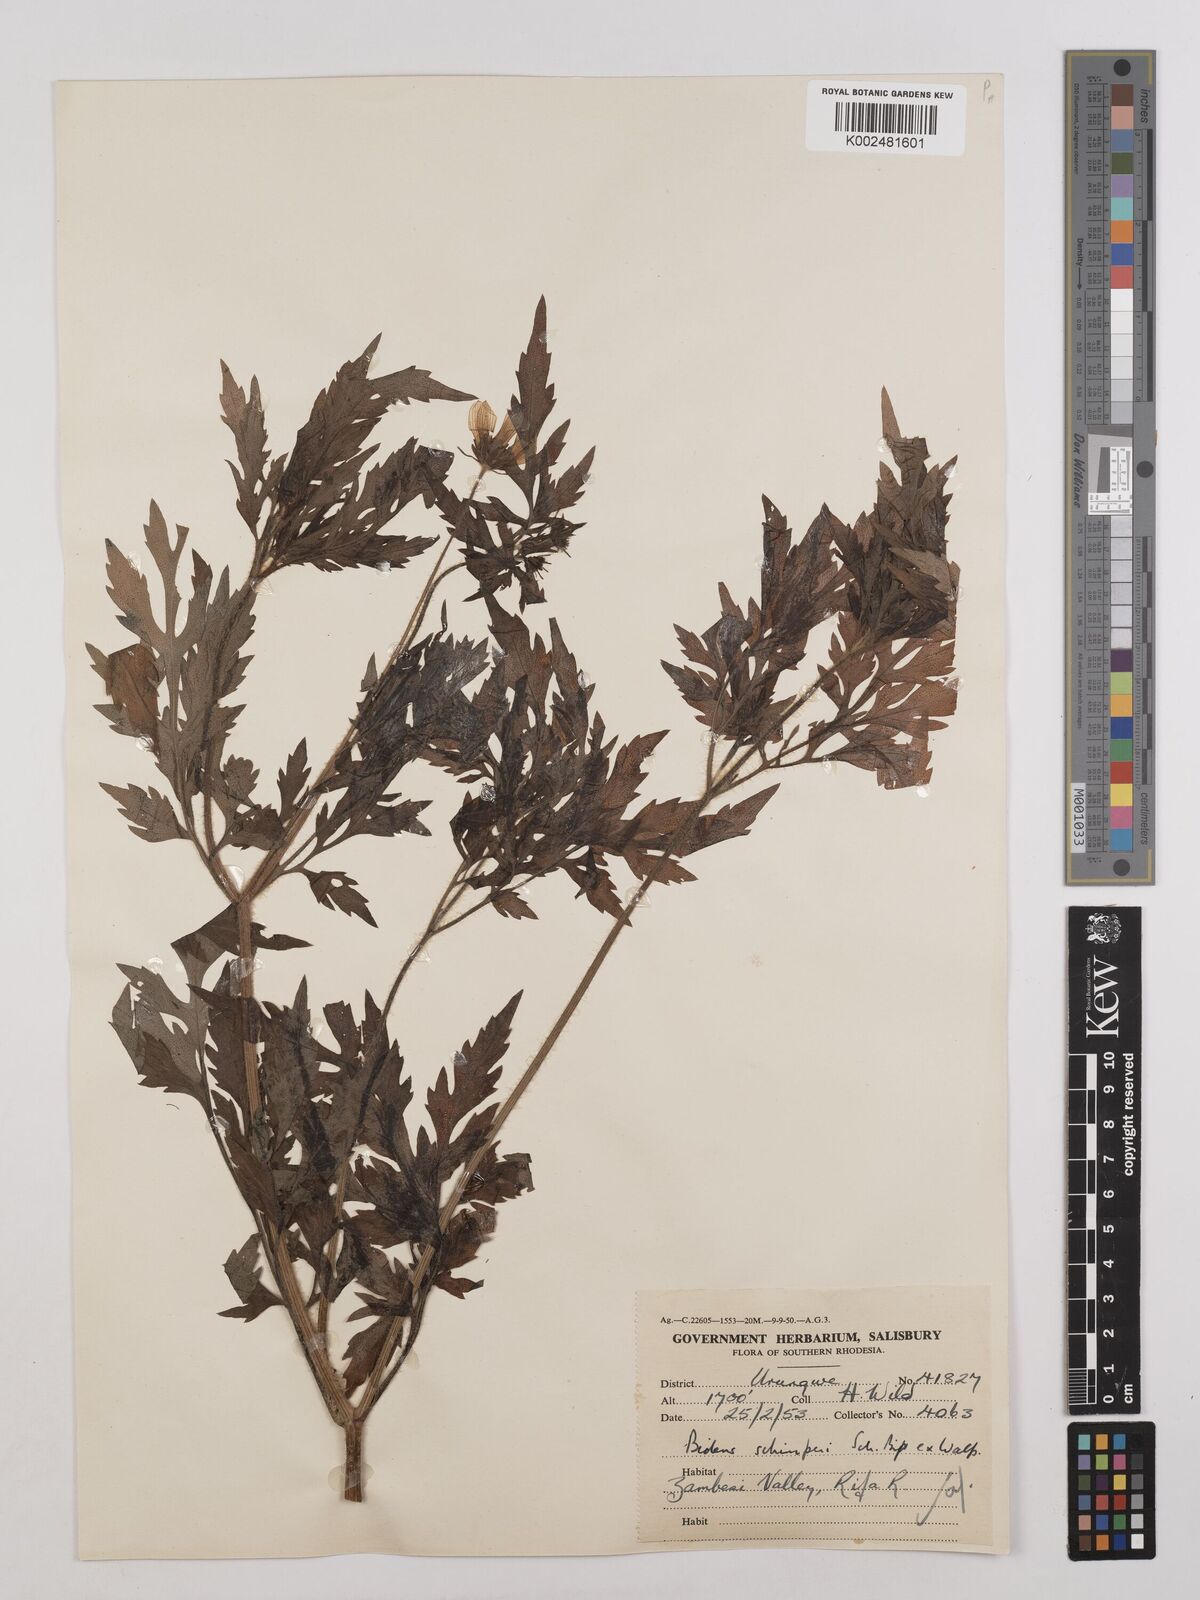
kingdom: Plantae
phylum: Tracheophyta
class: Magnoliopsida
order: Asterales
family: Asteraceae
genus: Bidens
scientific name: Bidens schimperi
